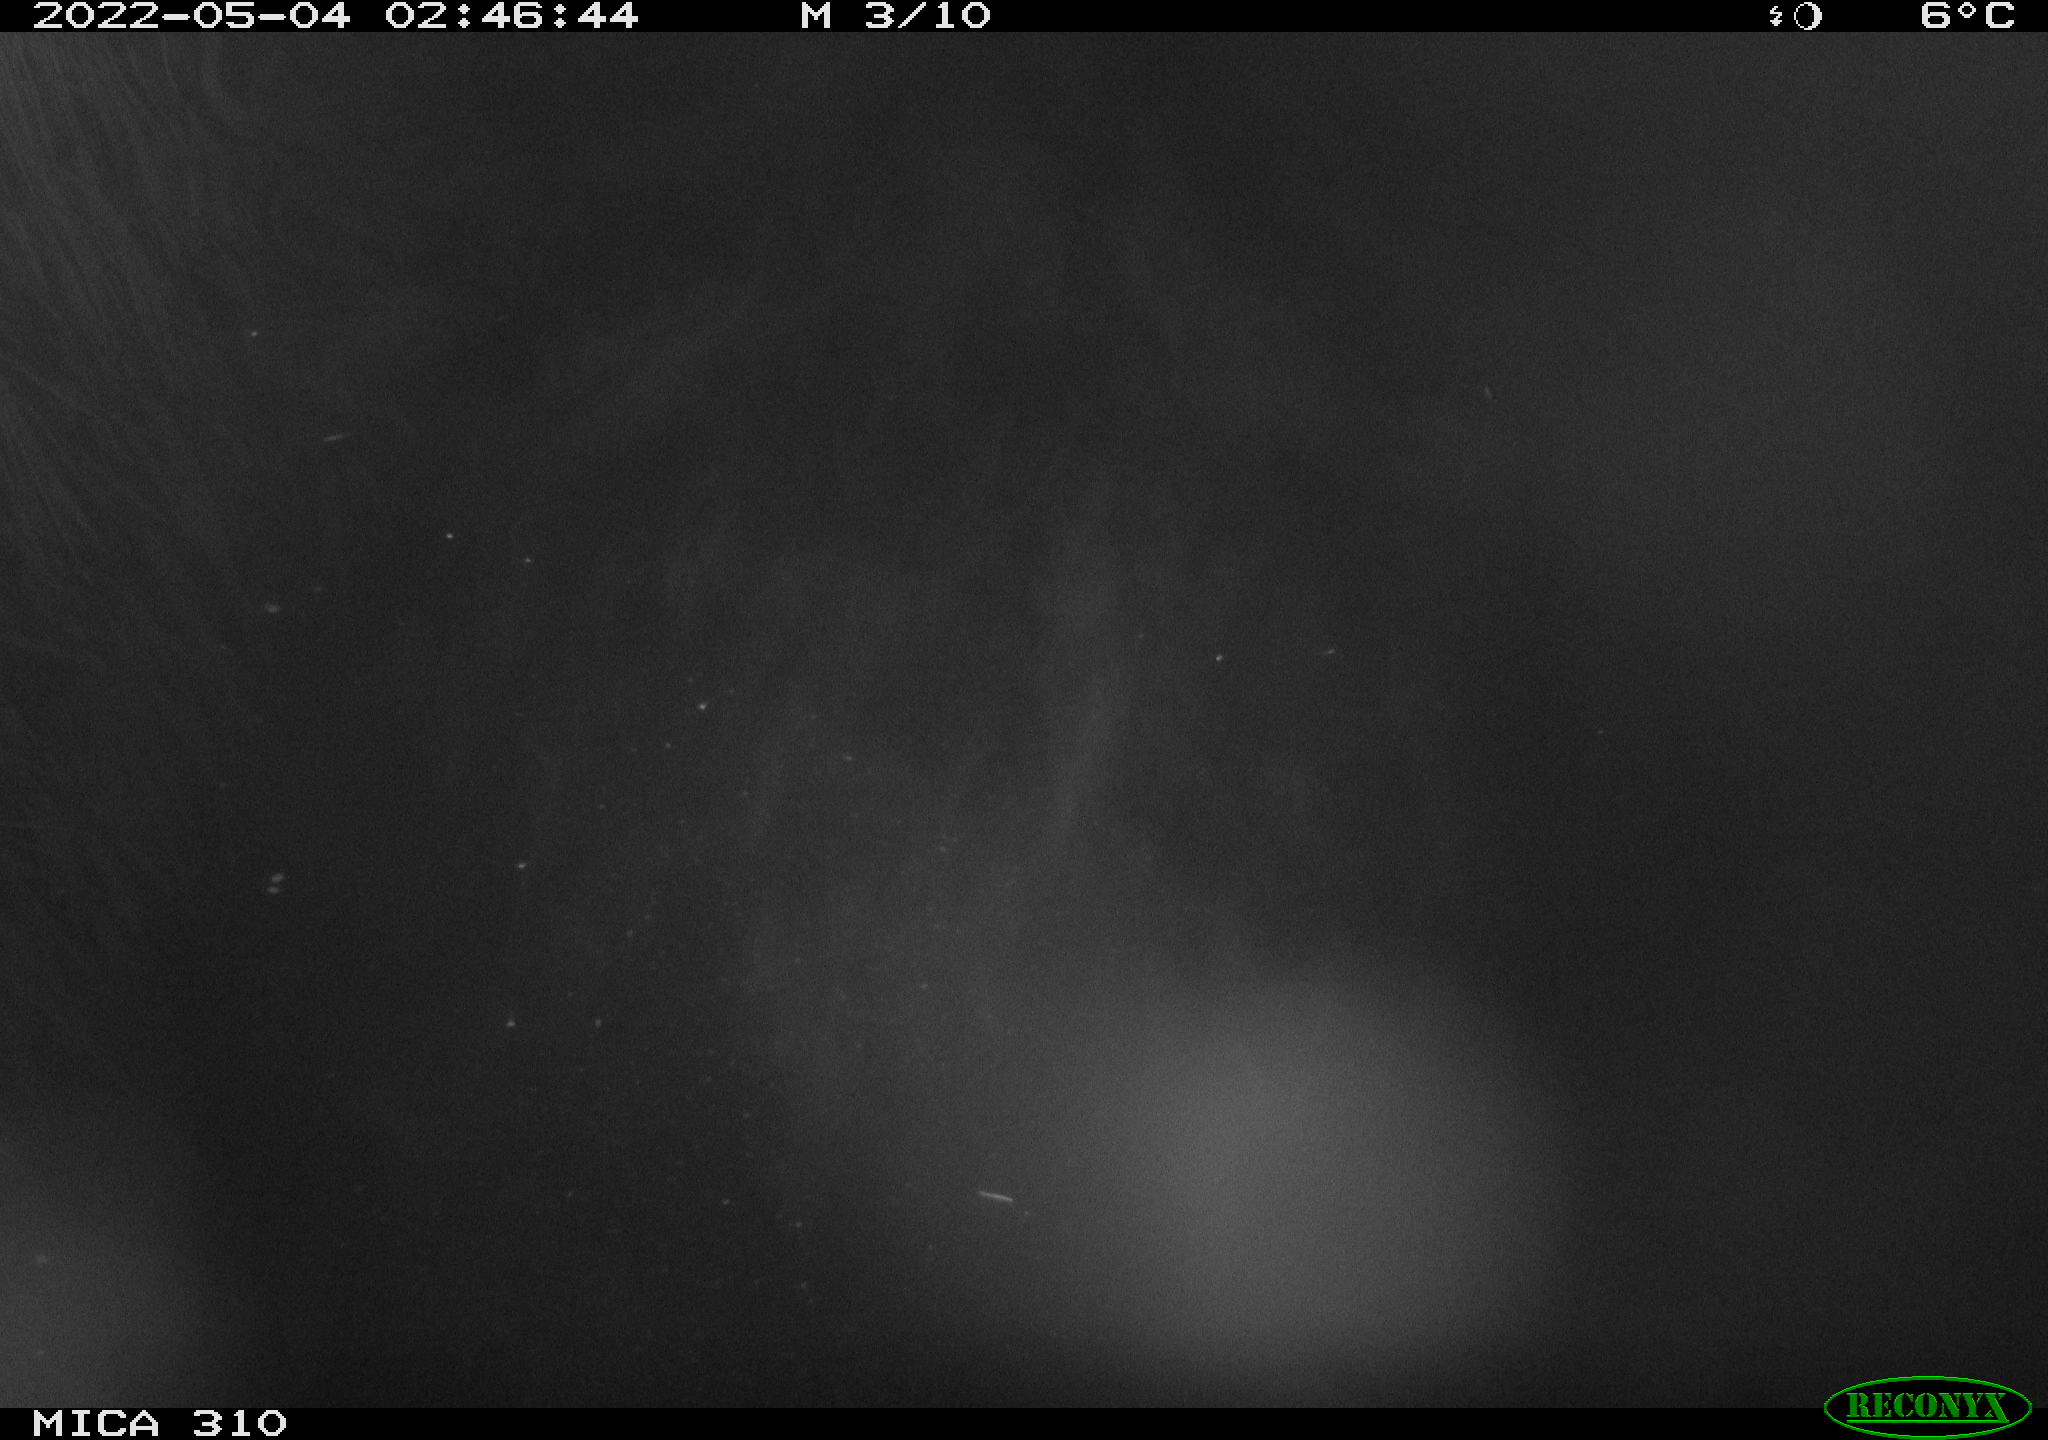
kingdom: Animalia
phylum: Chordata
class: Mammalia
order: Rodentia
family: Cricetidae
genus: Ondatra
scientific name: Ondatra zibethicus
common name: Muskrat
